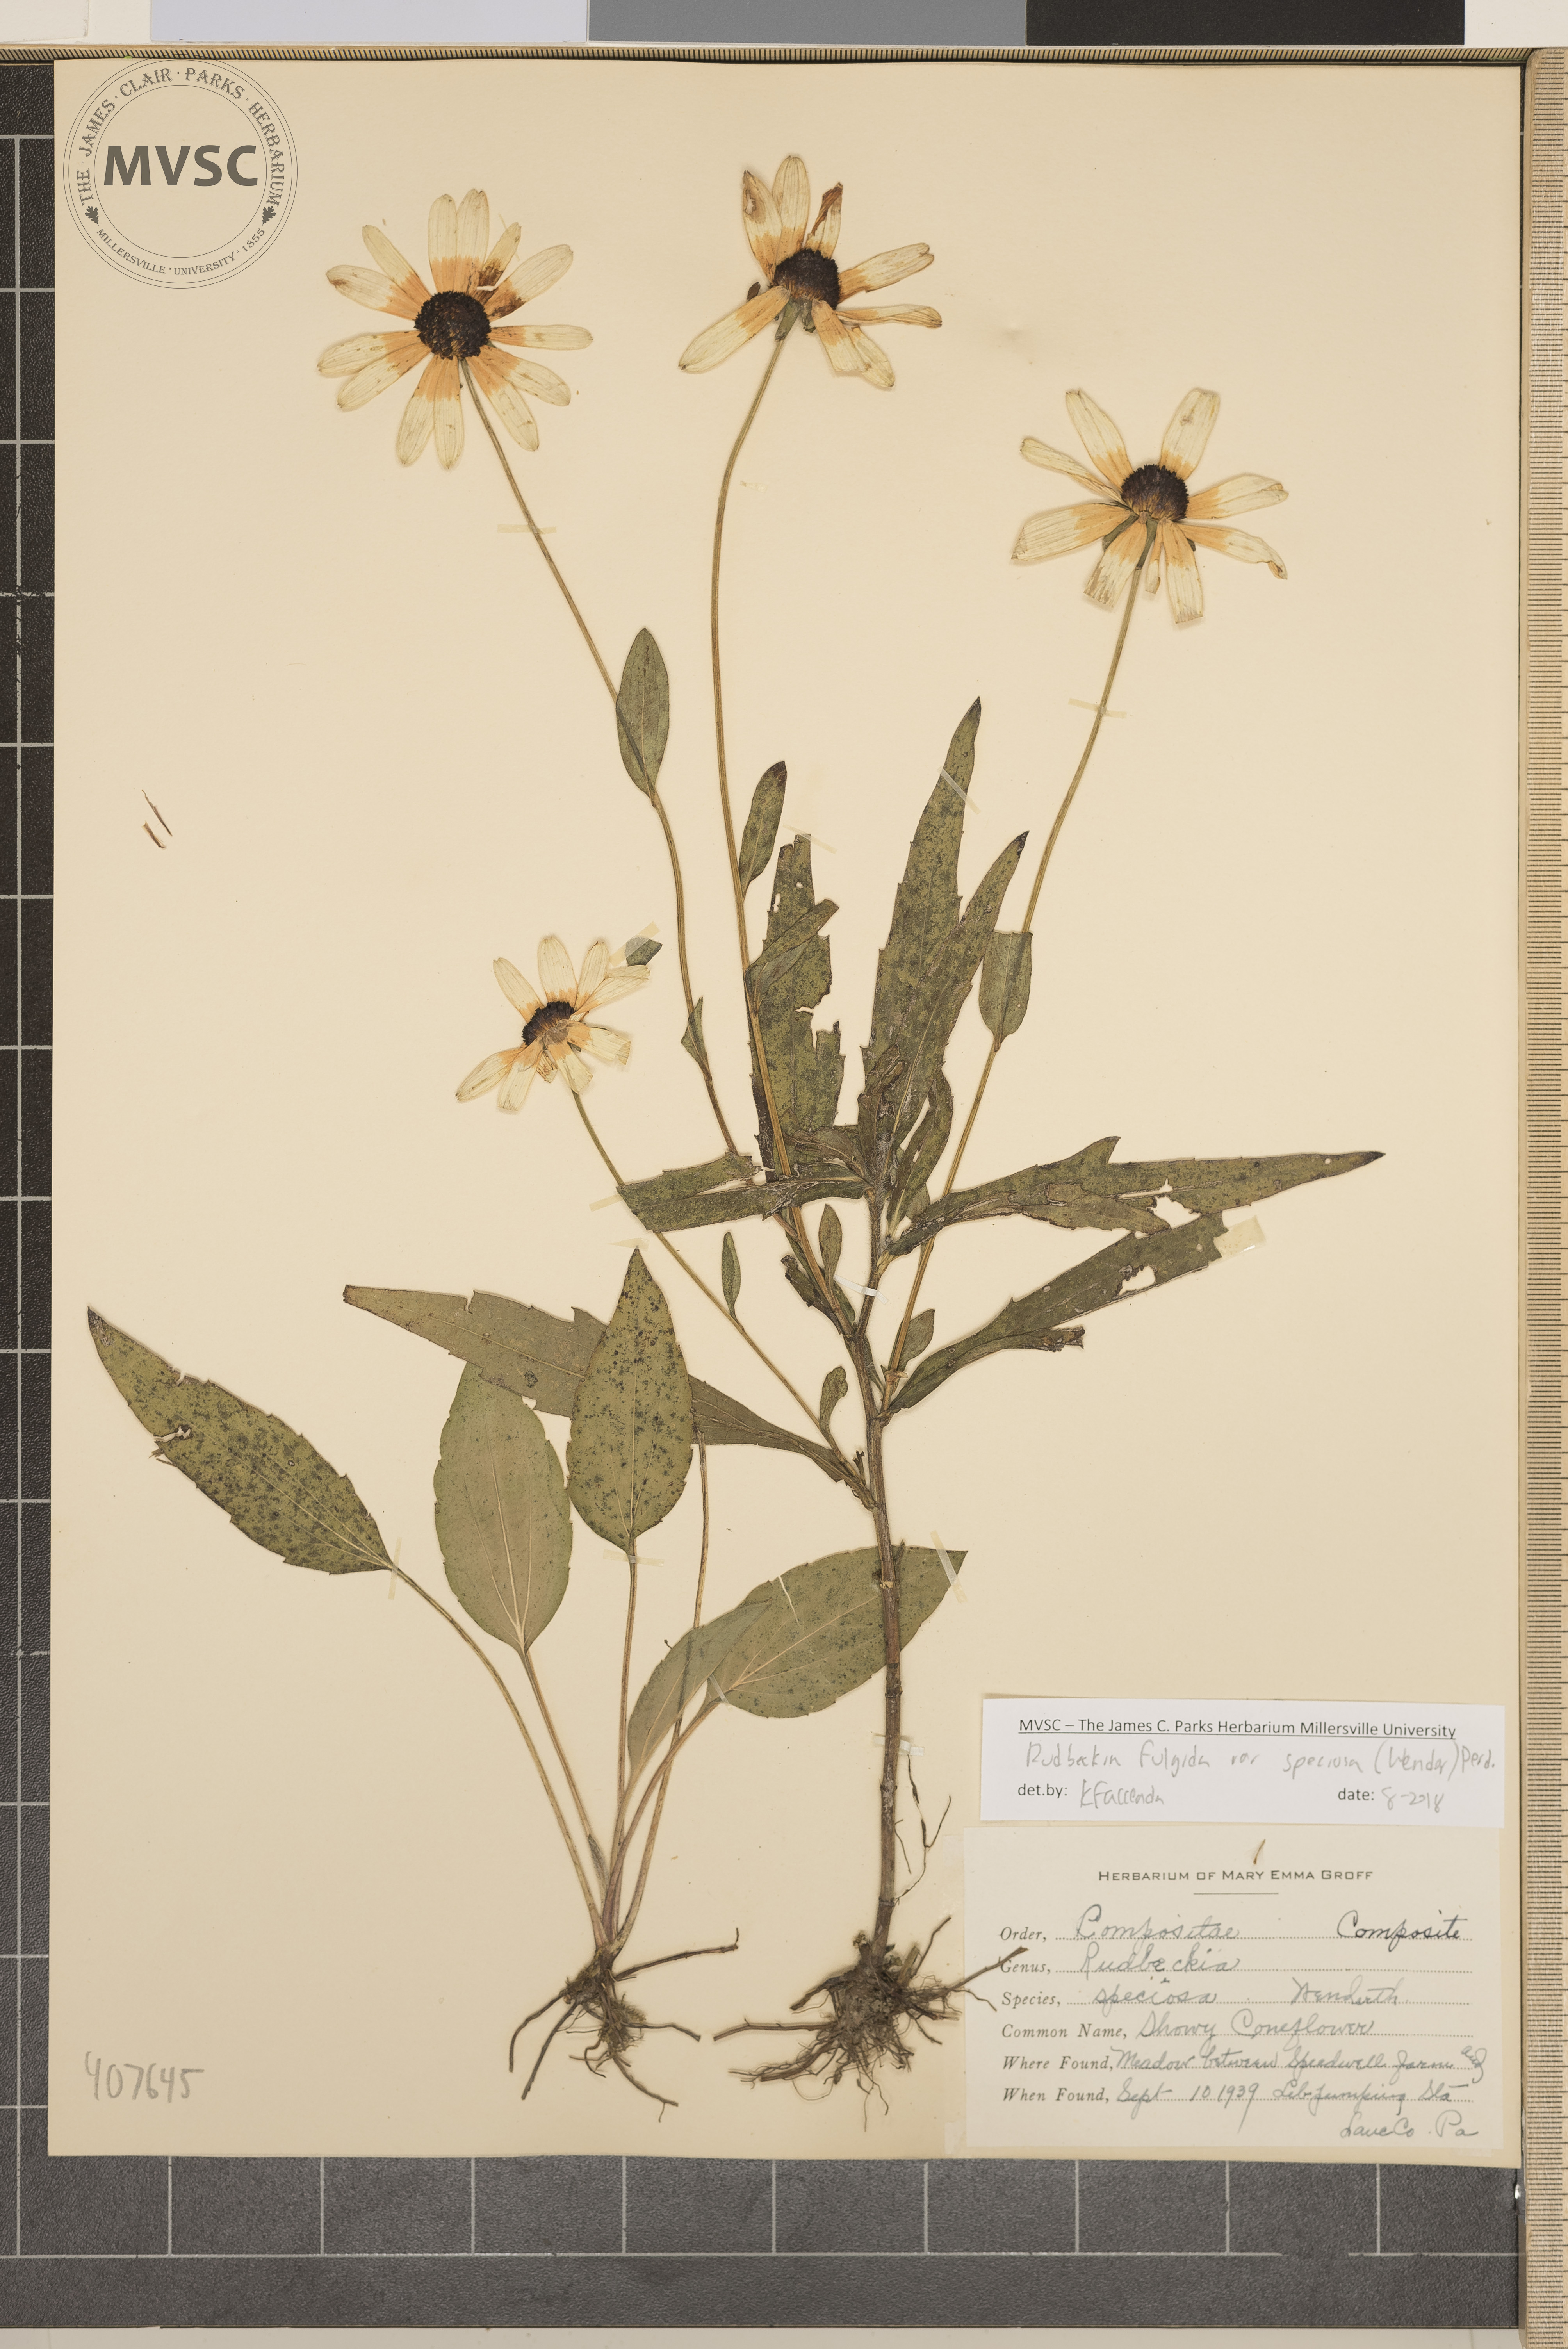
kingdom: Plantae
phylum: Tracheophyta
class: Magnoliopsida
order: Asterales
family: Asteraceae
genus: Rudbeckia
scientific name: Rudbeckia fulgida
